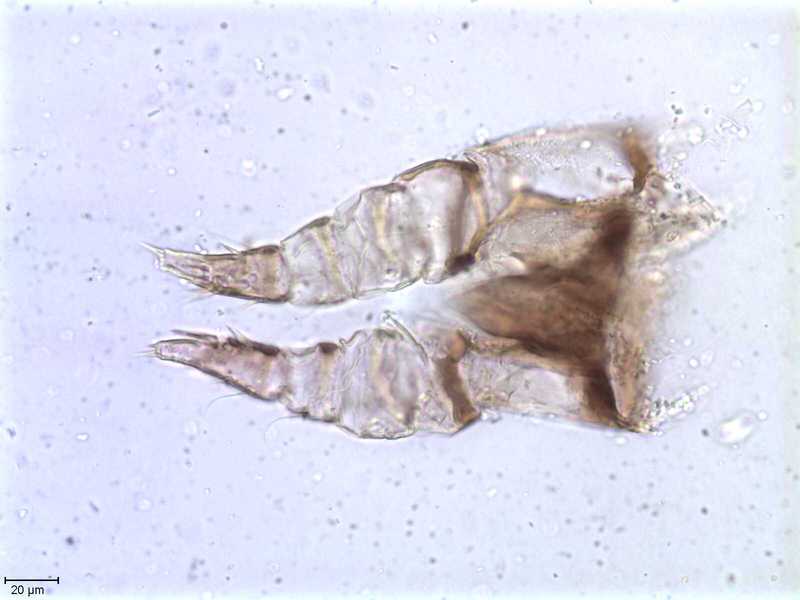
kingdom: Animalia
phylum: Arthropoda
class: Arachnida
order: Mesostigmata
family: Halarachnidae
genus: Orthohalarachne
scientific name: Orthohalarachne letalis
